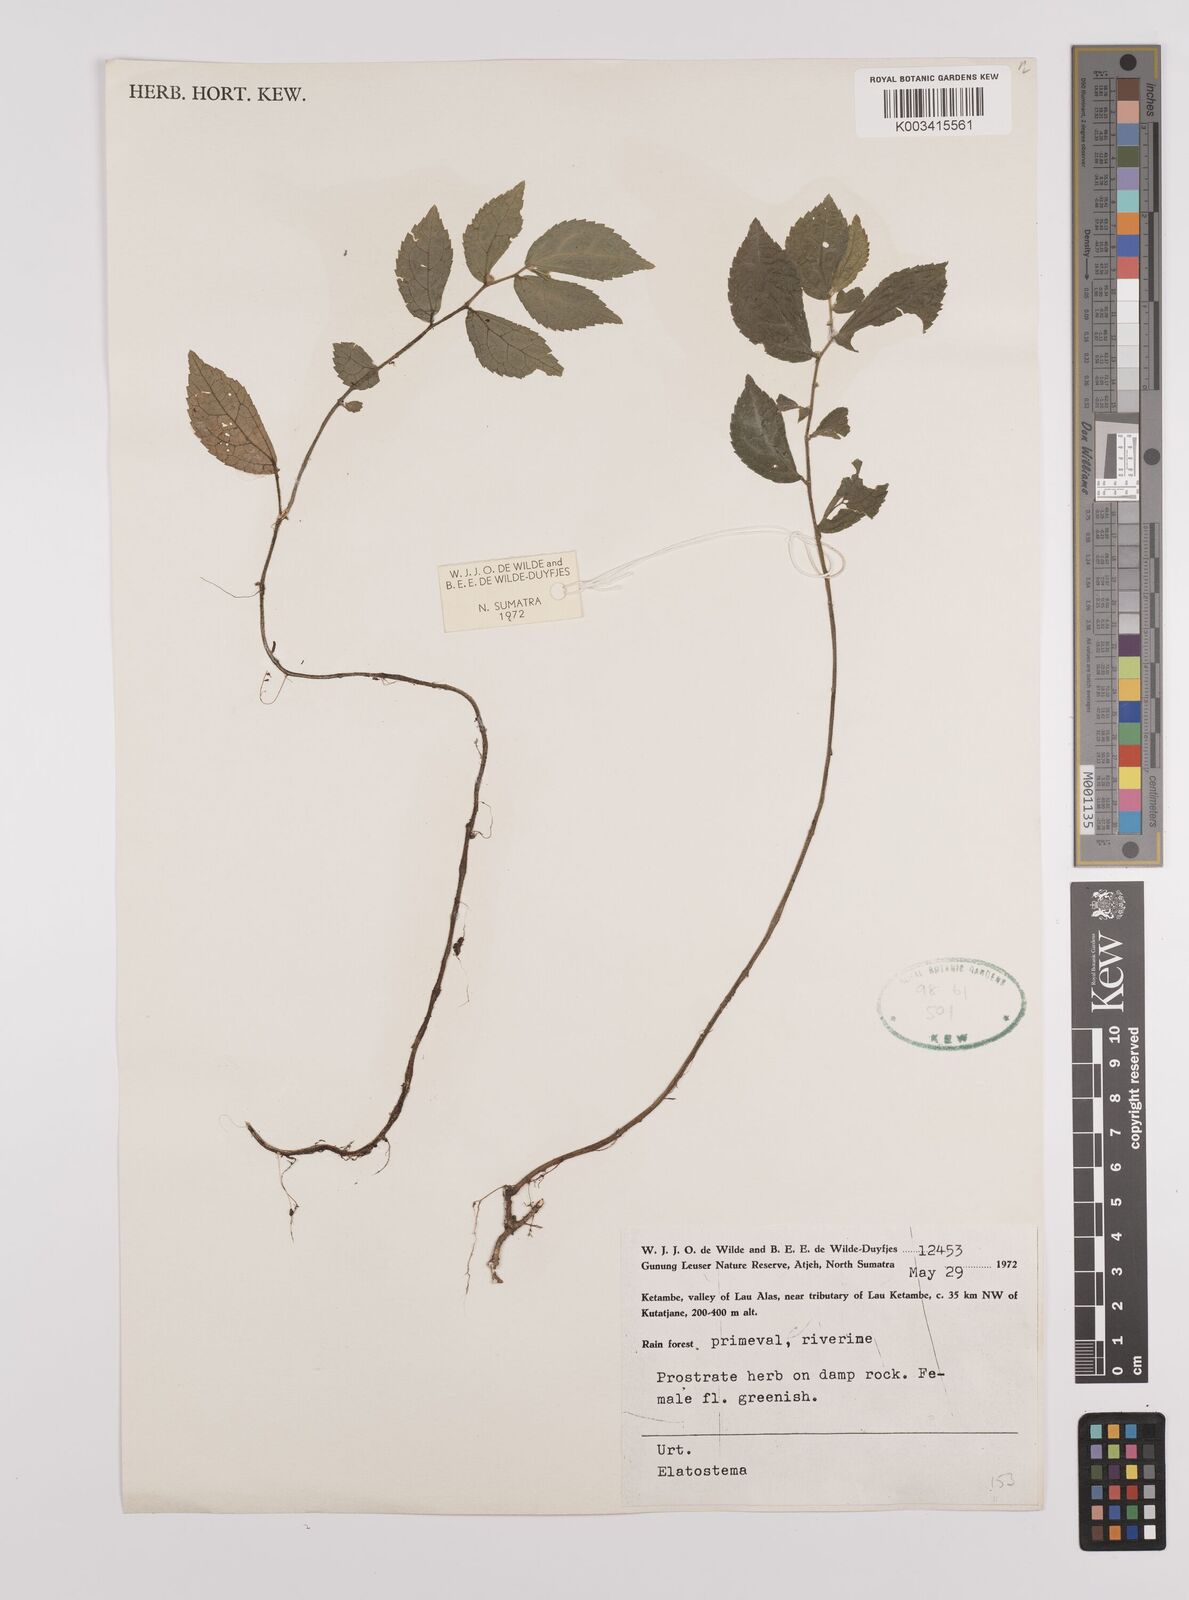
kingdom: Plantae
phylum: Tracheophyta
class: Magnoliopsida
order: Rosales
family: Urticaceae
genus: Elatostema
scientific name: Elatostema
